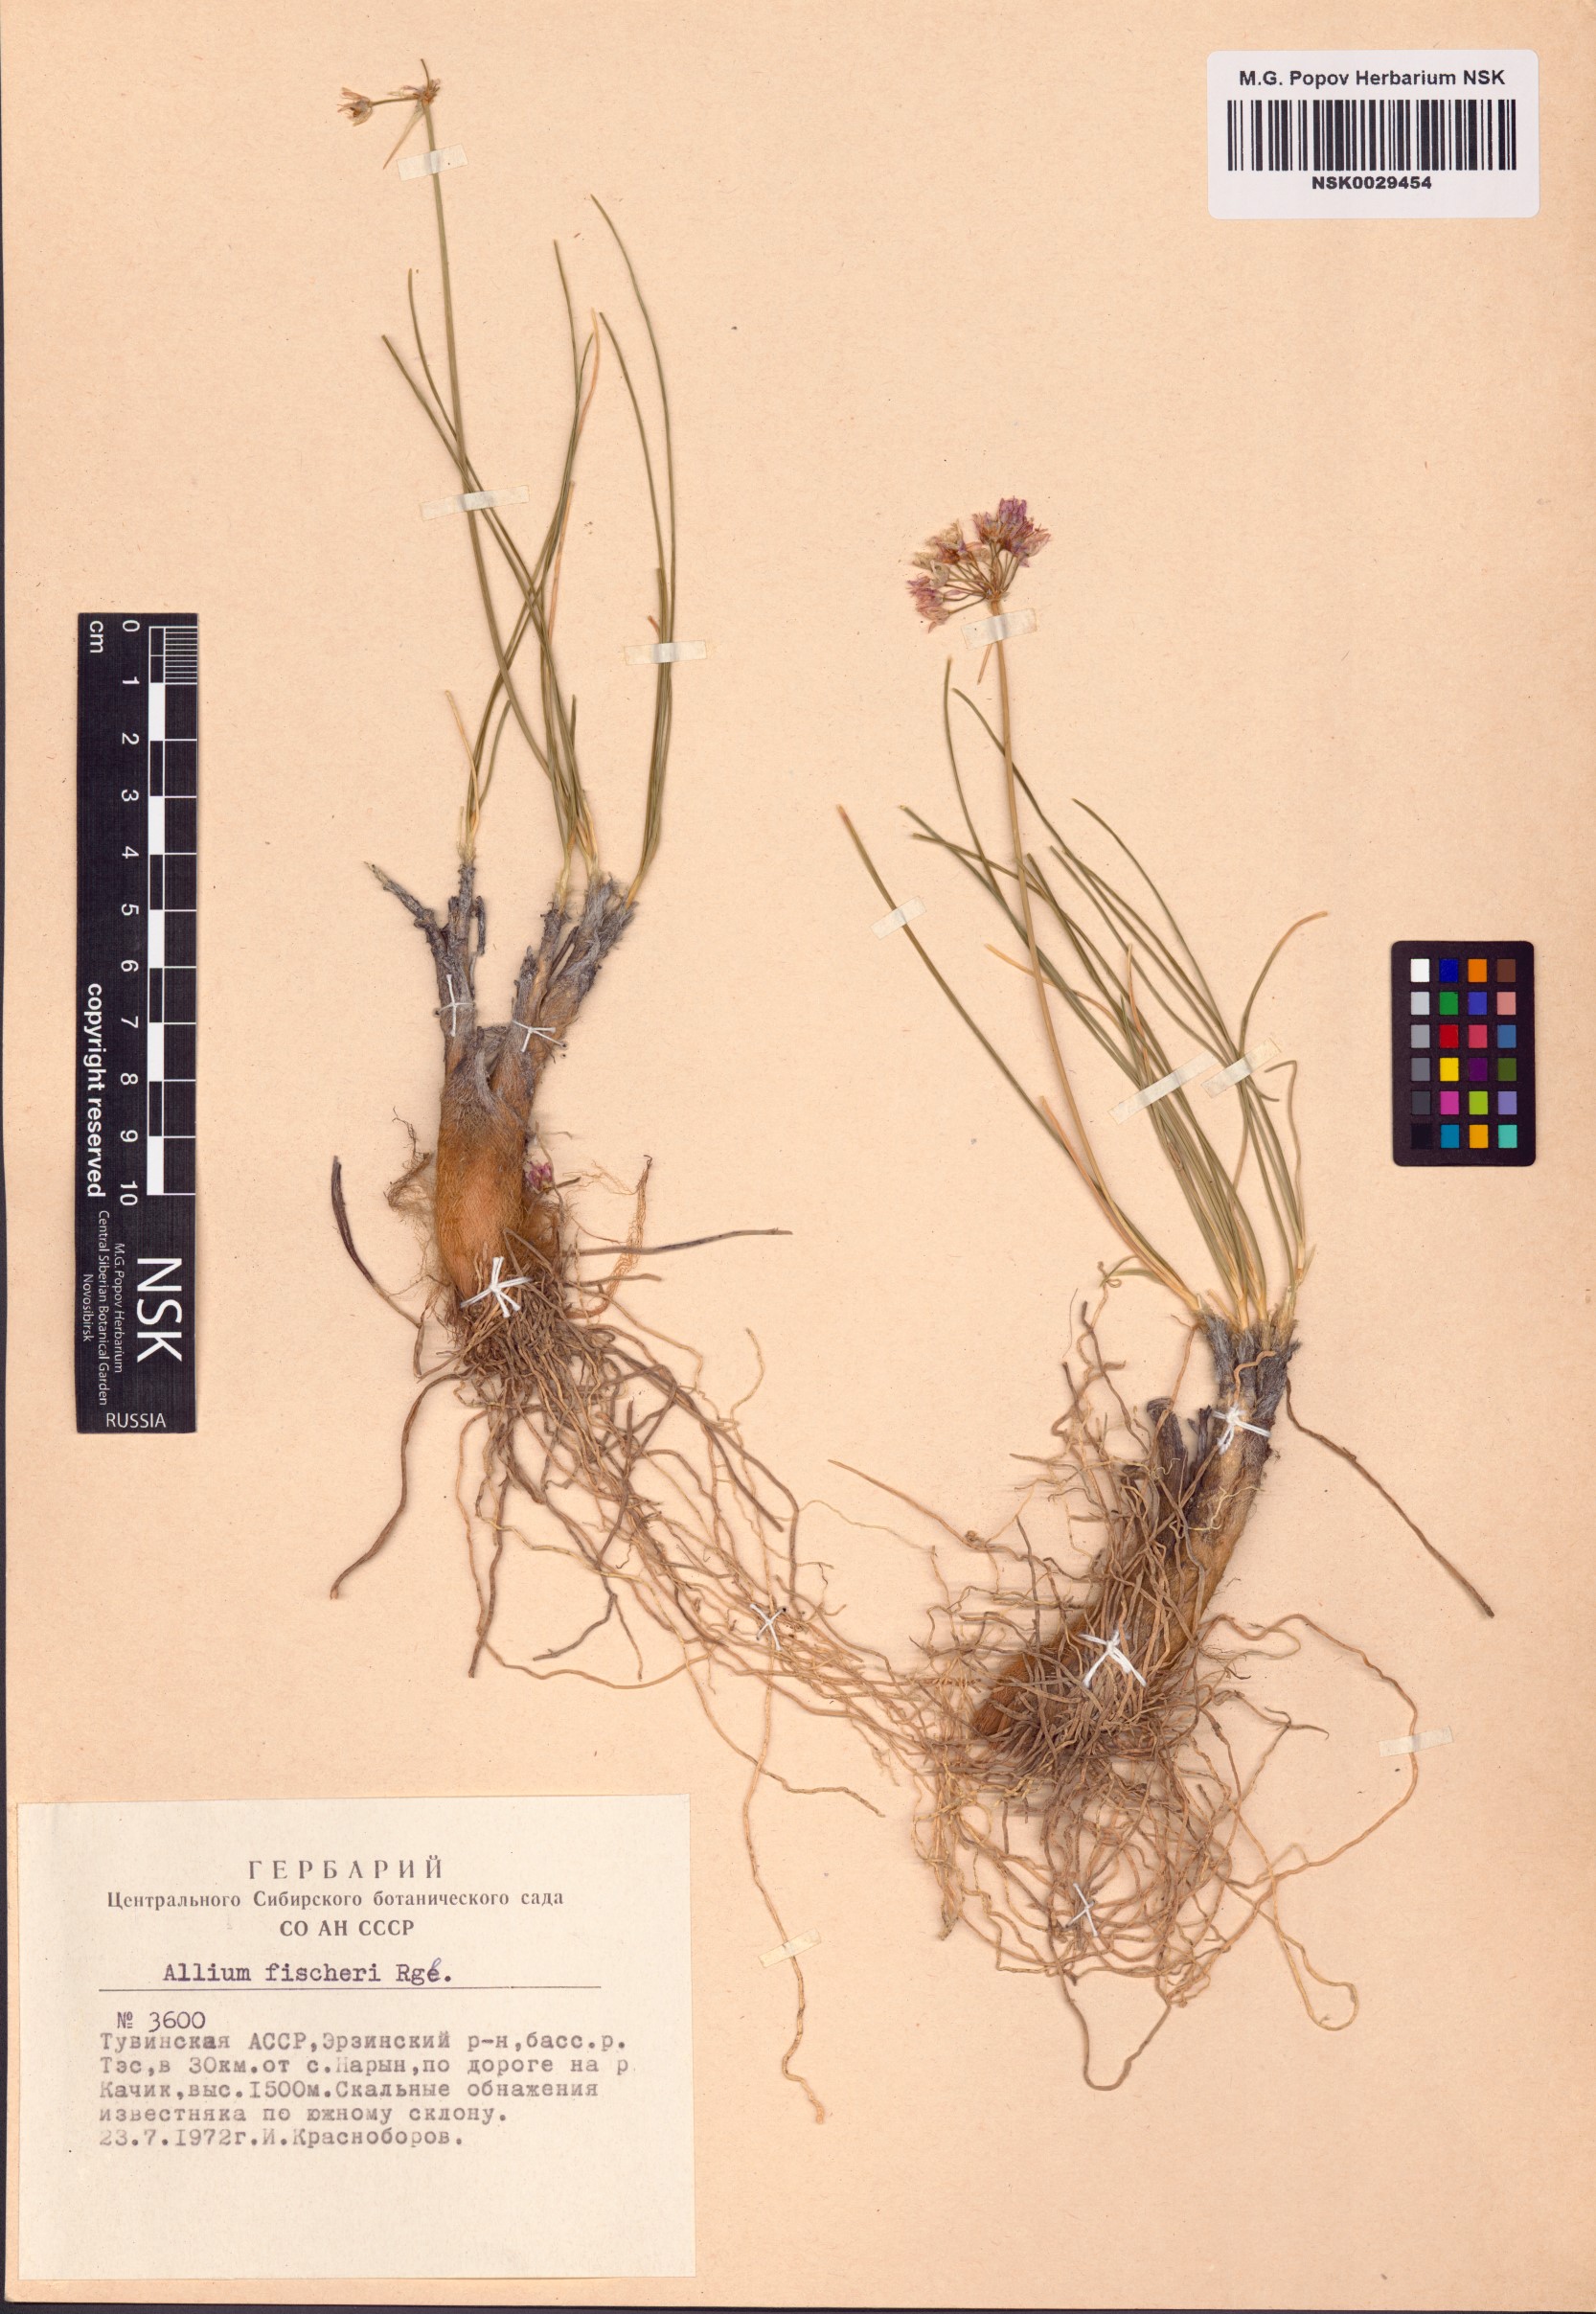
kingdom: Plantae
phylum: Tracheophyta
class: Liliopsida
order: Asparagales
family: Amaryllidaceae
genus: Allium
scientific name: Allium eduardi
